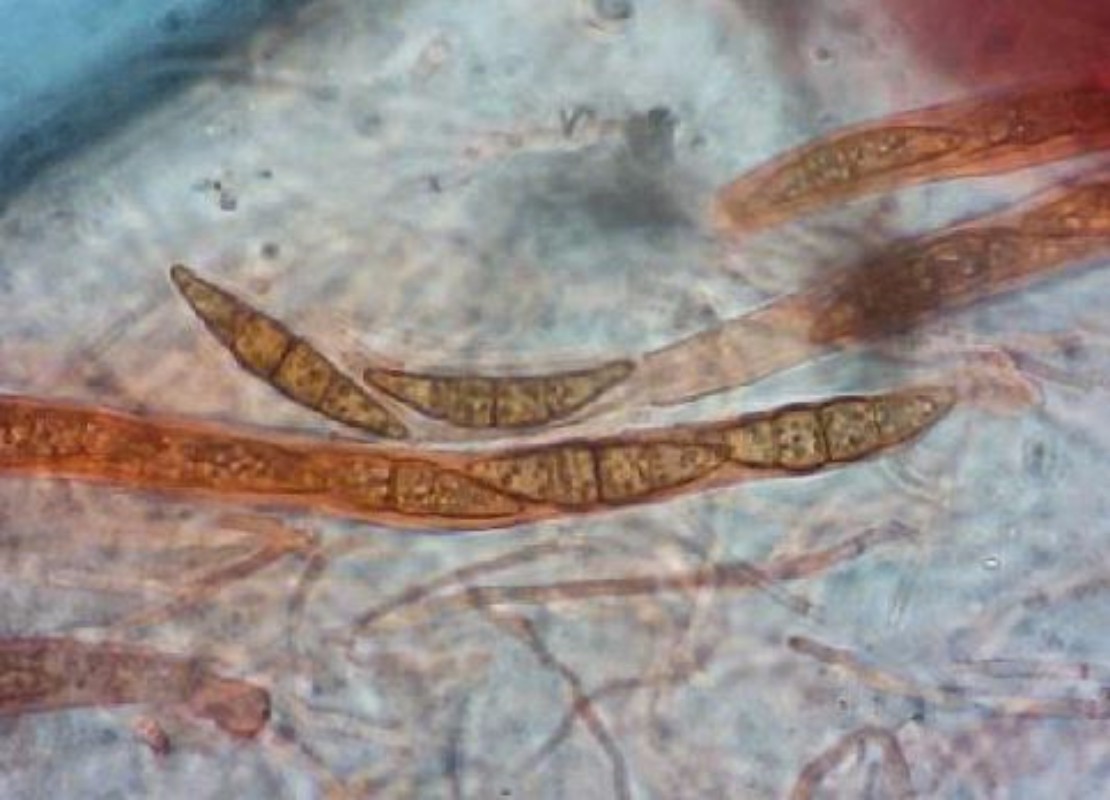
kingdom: Fungi
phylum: Ascomycota
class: Dothideomycetes
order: Pleosporales
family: Leptosphaeriaceae
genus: Leptosphaeria
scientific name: Leptosphaeria doliolum
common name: skærm-kulkegle
